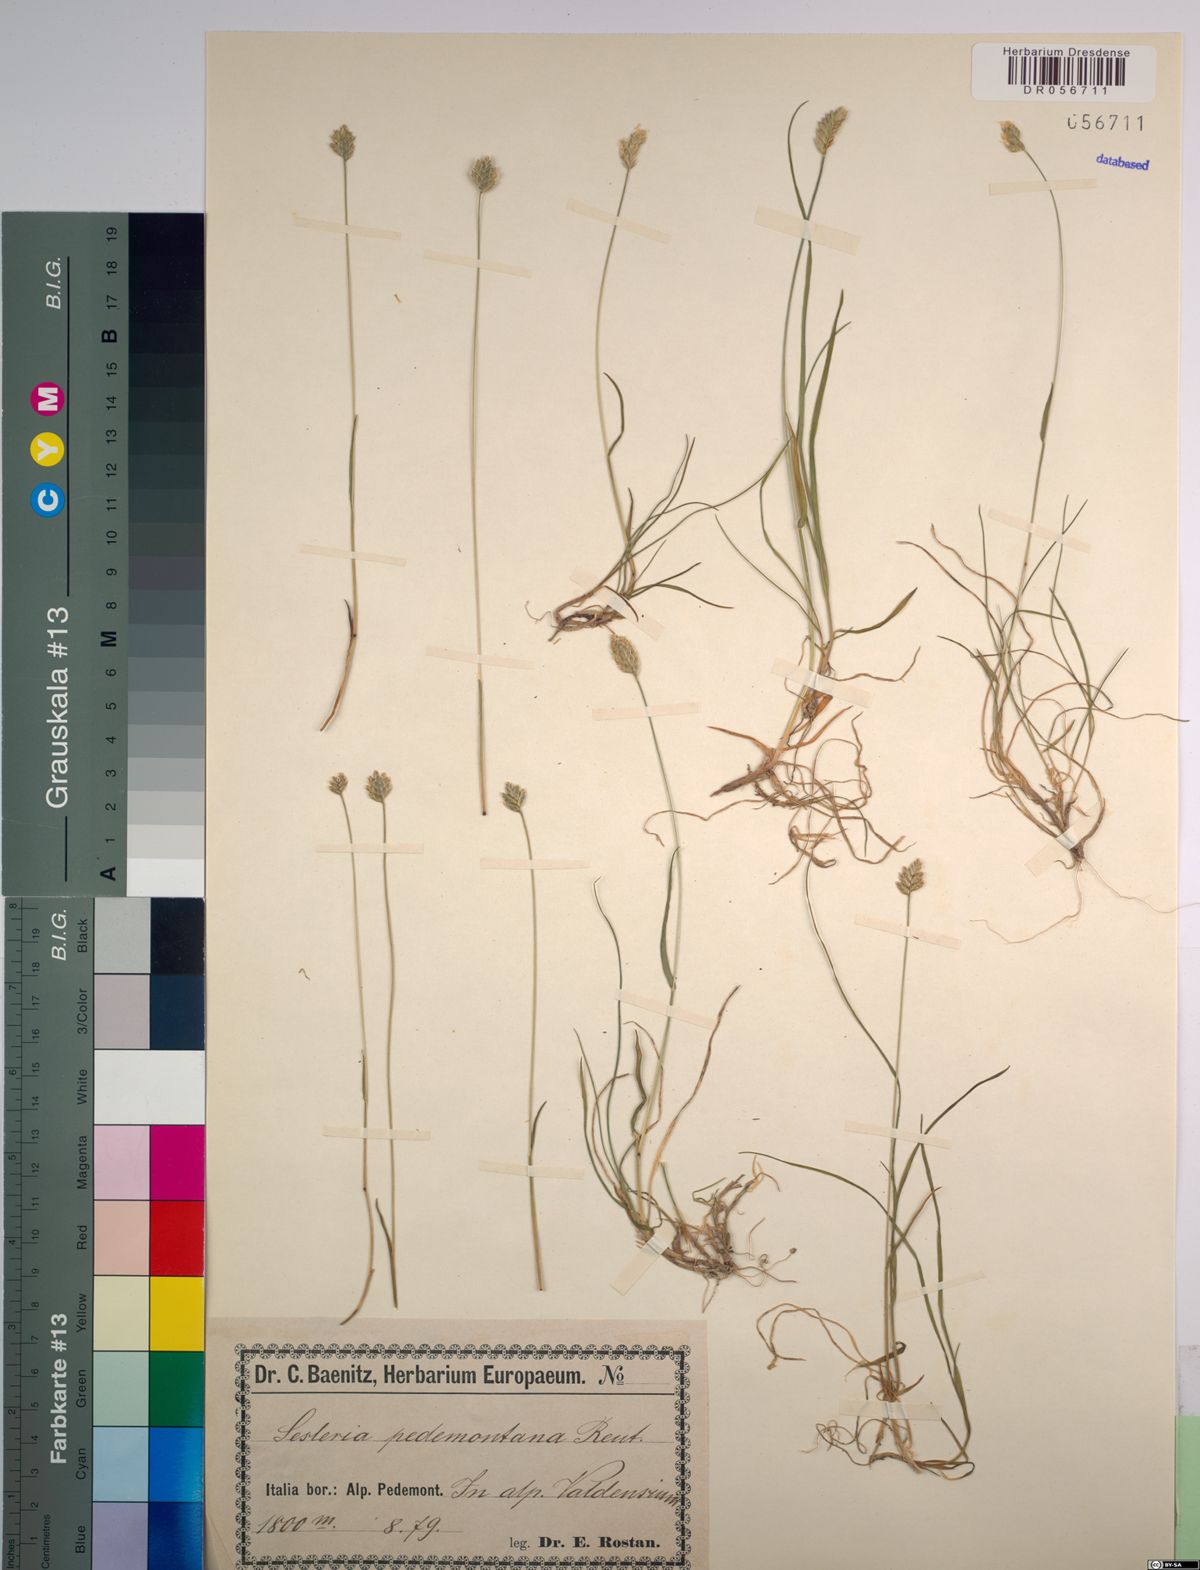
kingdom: Plantae
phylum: Tracheophyta
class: Liliopsida
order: Poales
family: Poaceae
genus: Oreochloa
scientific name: Oreochloa seslerioides
